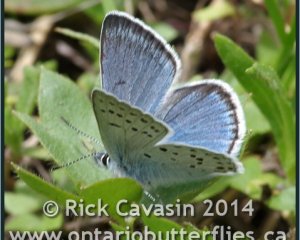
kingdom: Animalia
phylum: Arthropoda
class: Insecta
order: Lepidoptera
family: Lycaenidae
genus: Plebejus
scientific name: Plebejus saepiolus
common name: Greenish Blue
